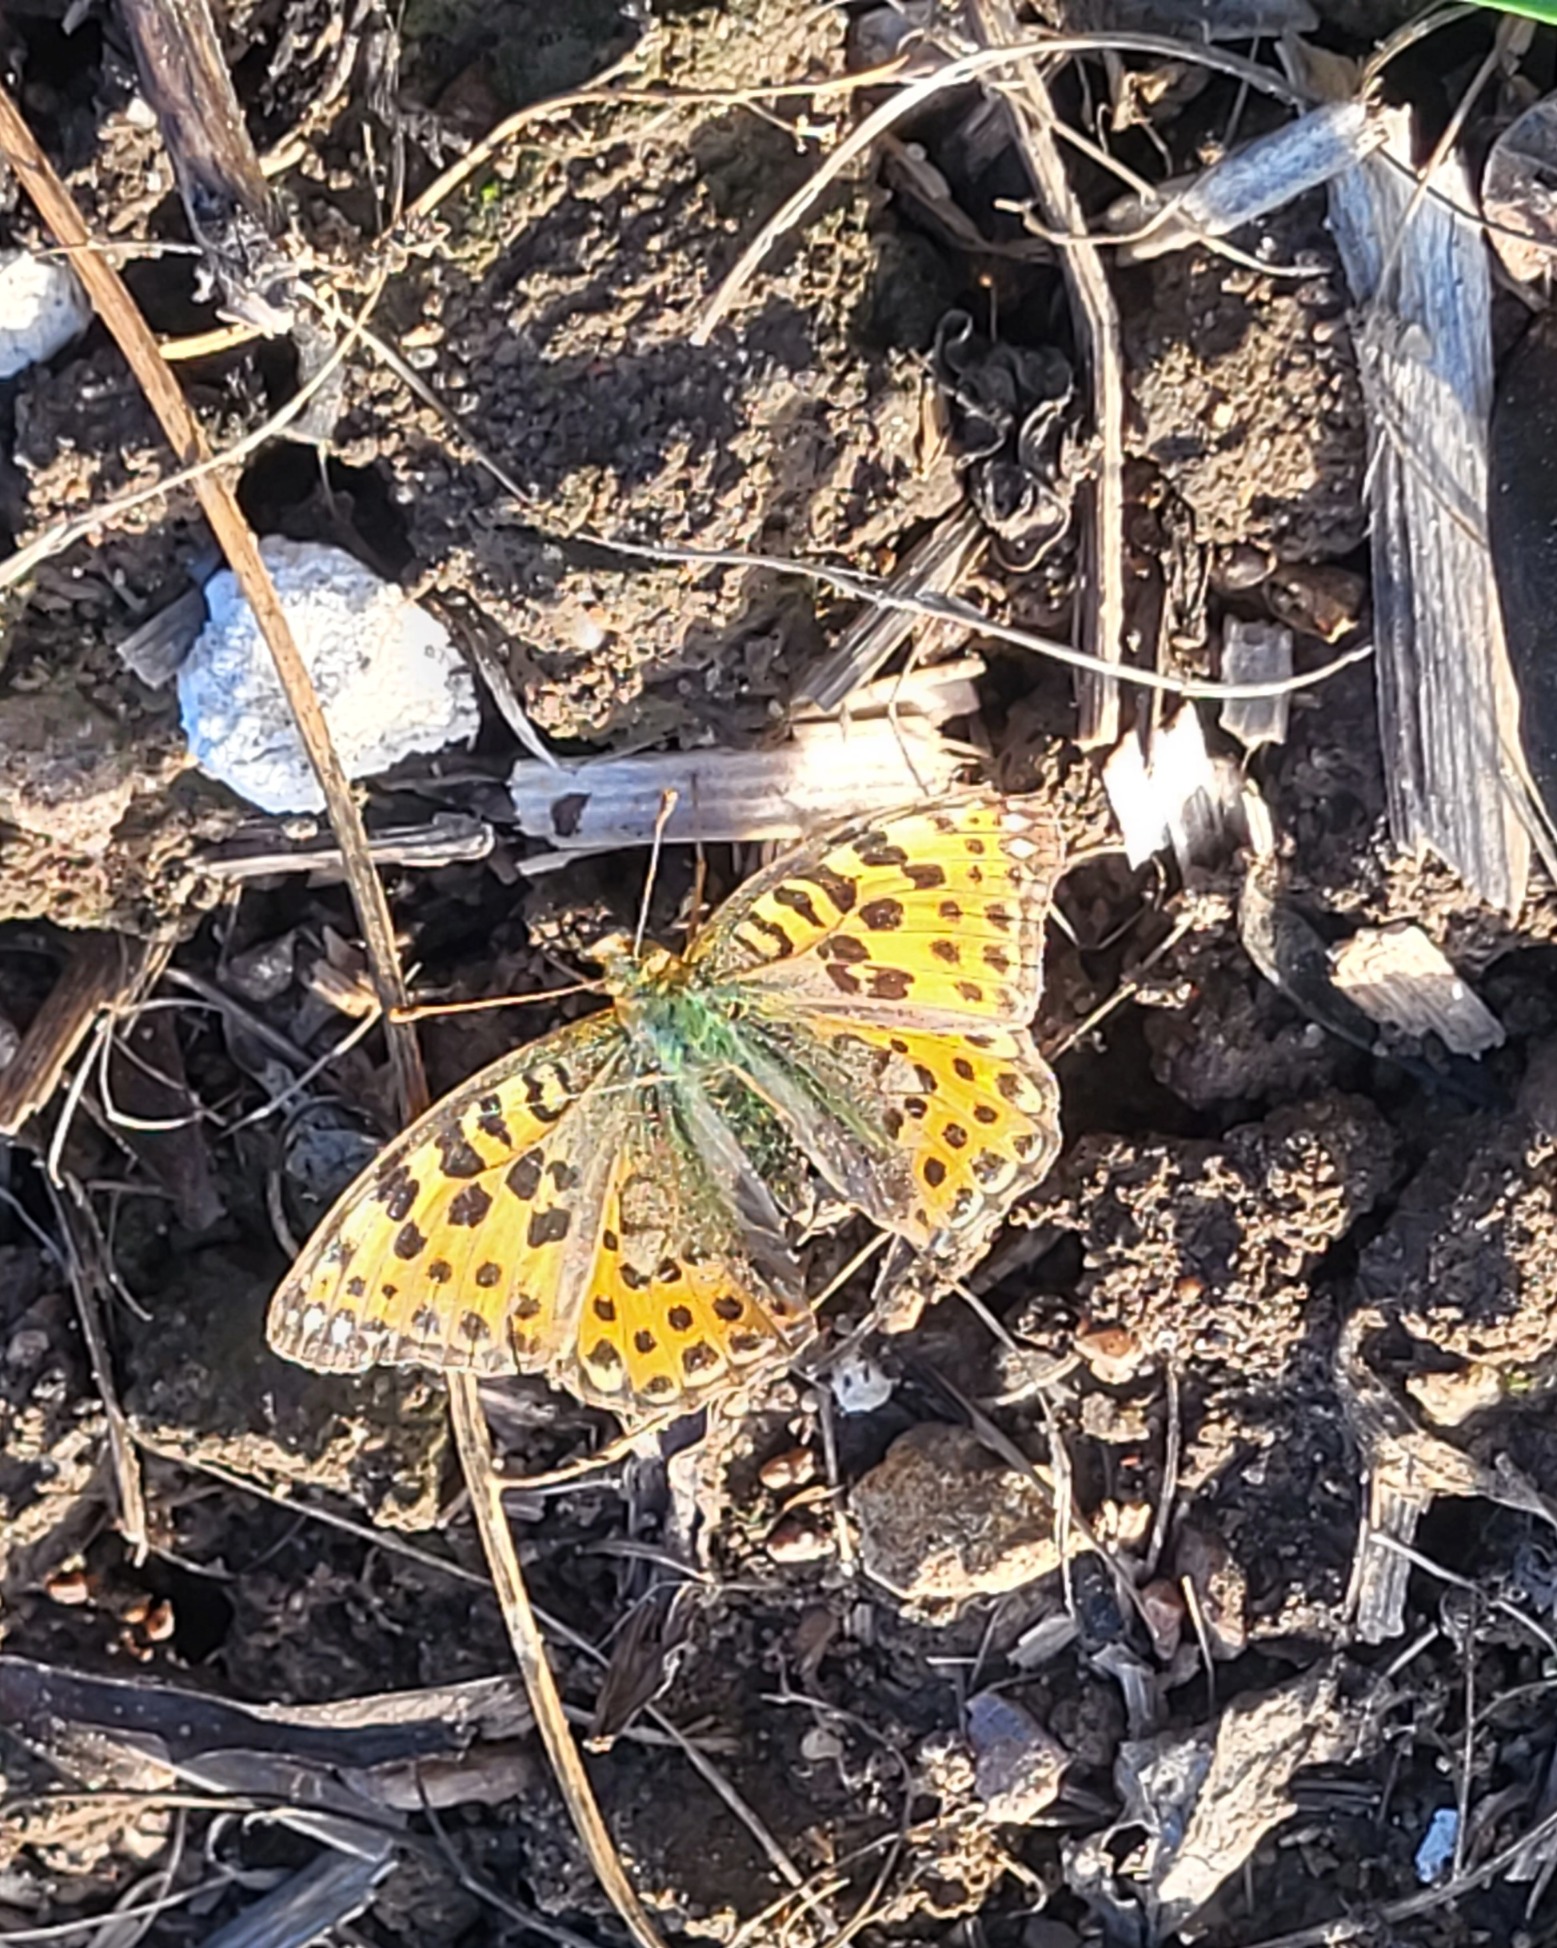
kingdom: Animalia
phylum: Arthropoda
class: Insecta
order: Lepidoptera
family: Nymphalidae
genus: Issoria
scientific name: Issoria lathonia
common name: Storplettet perlemorsommerfugl
